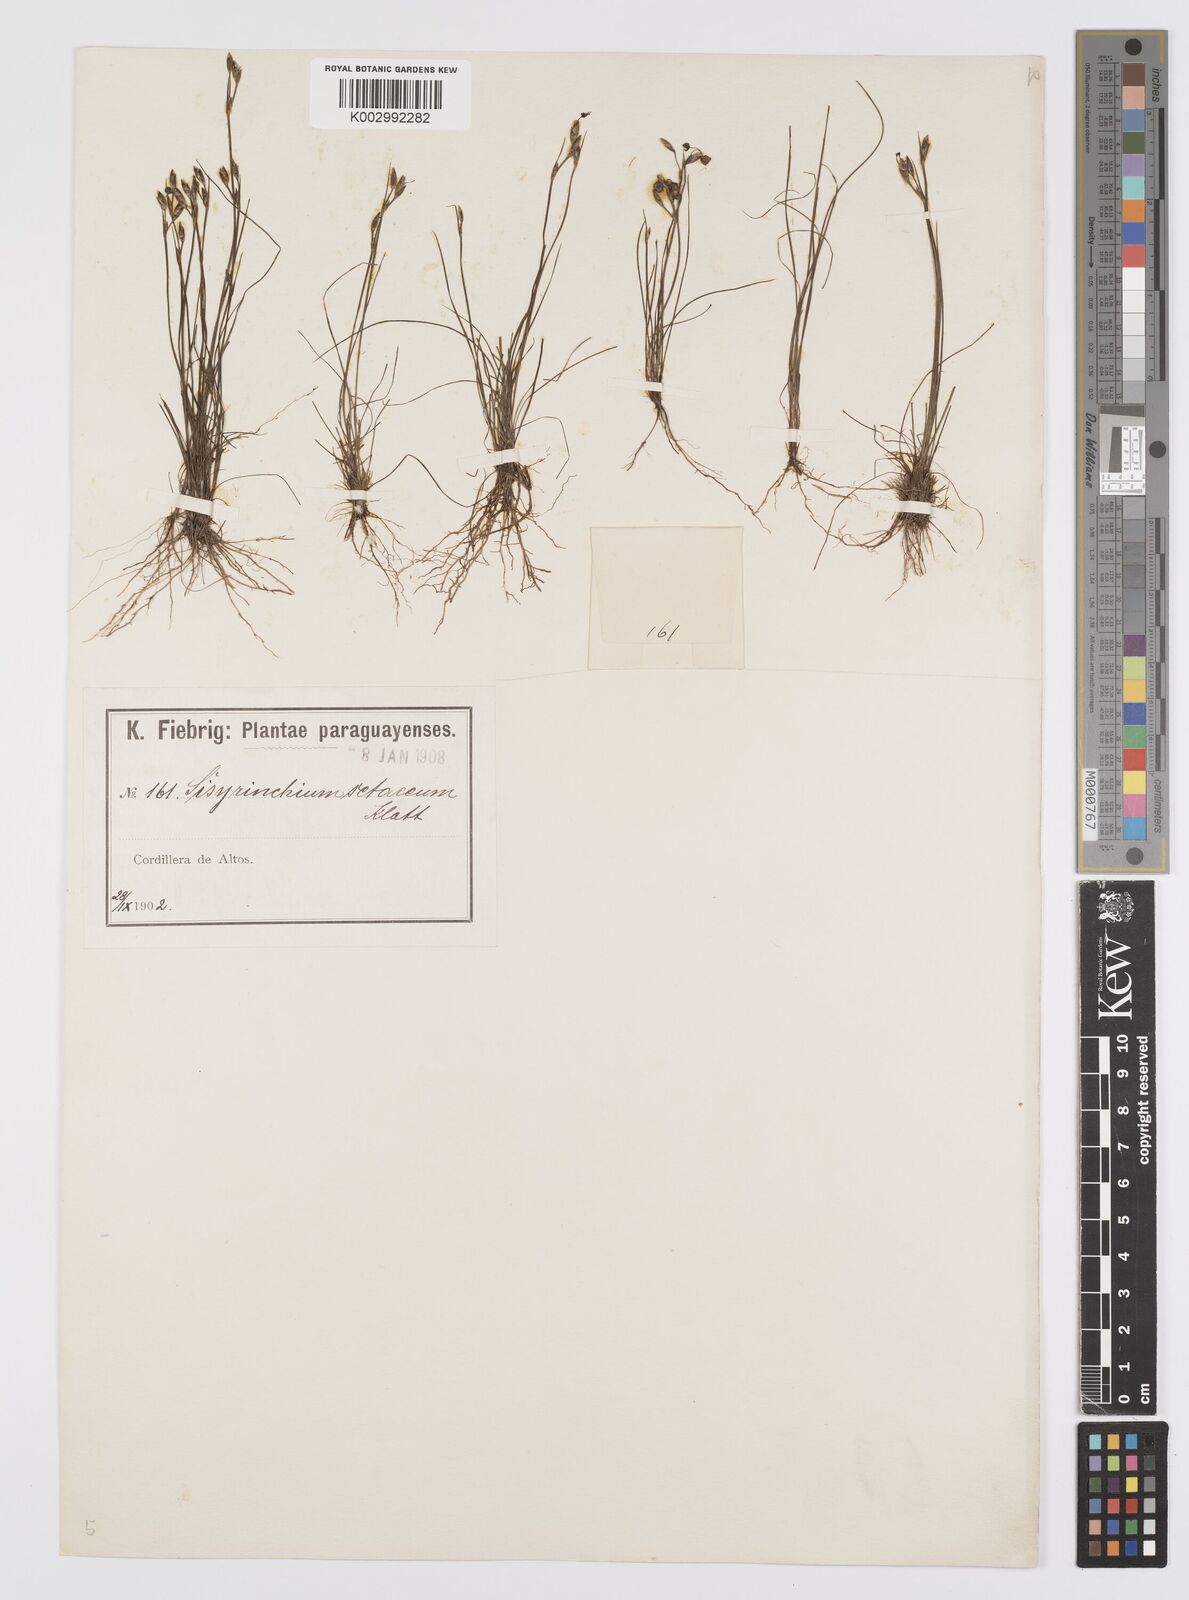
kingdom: Plantae
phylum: Tracheophyta
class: Liliopsida
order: Asparagales
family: Iridaceae
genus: Sisyrinchium
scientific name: Sisyrinchium
